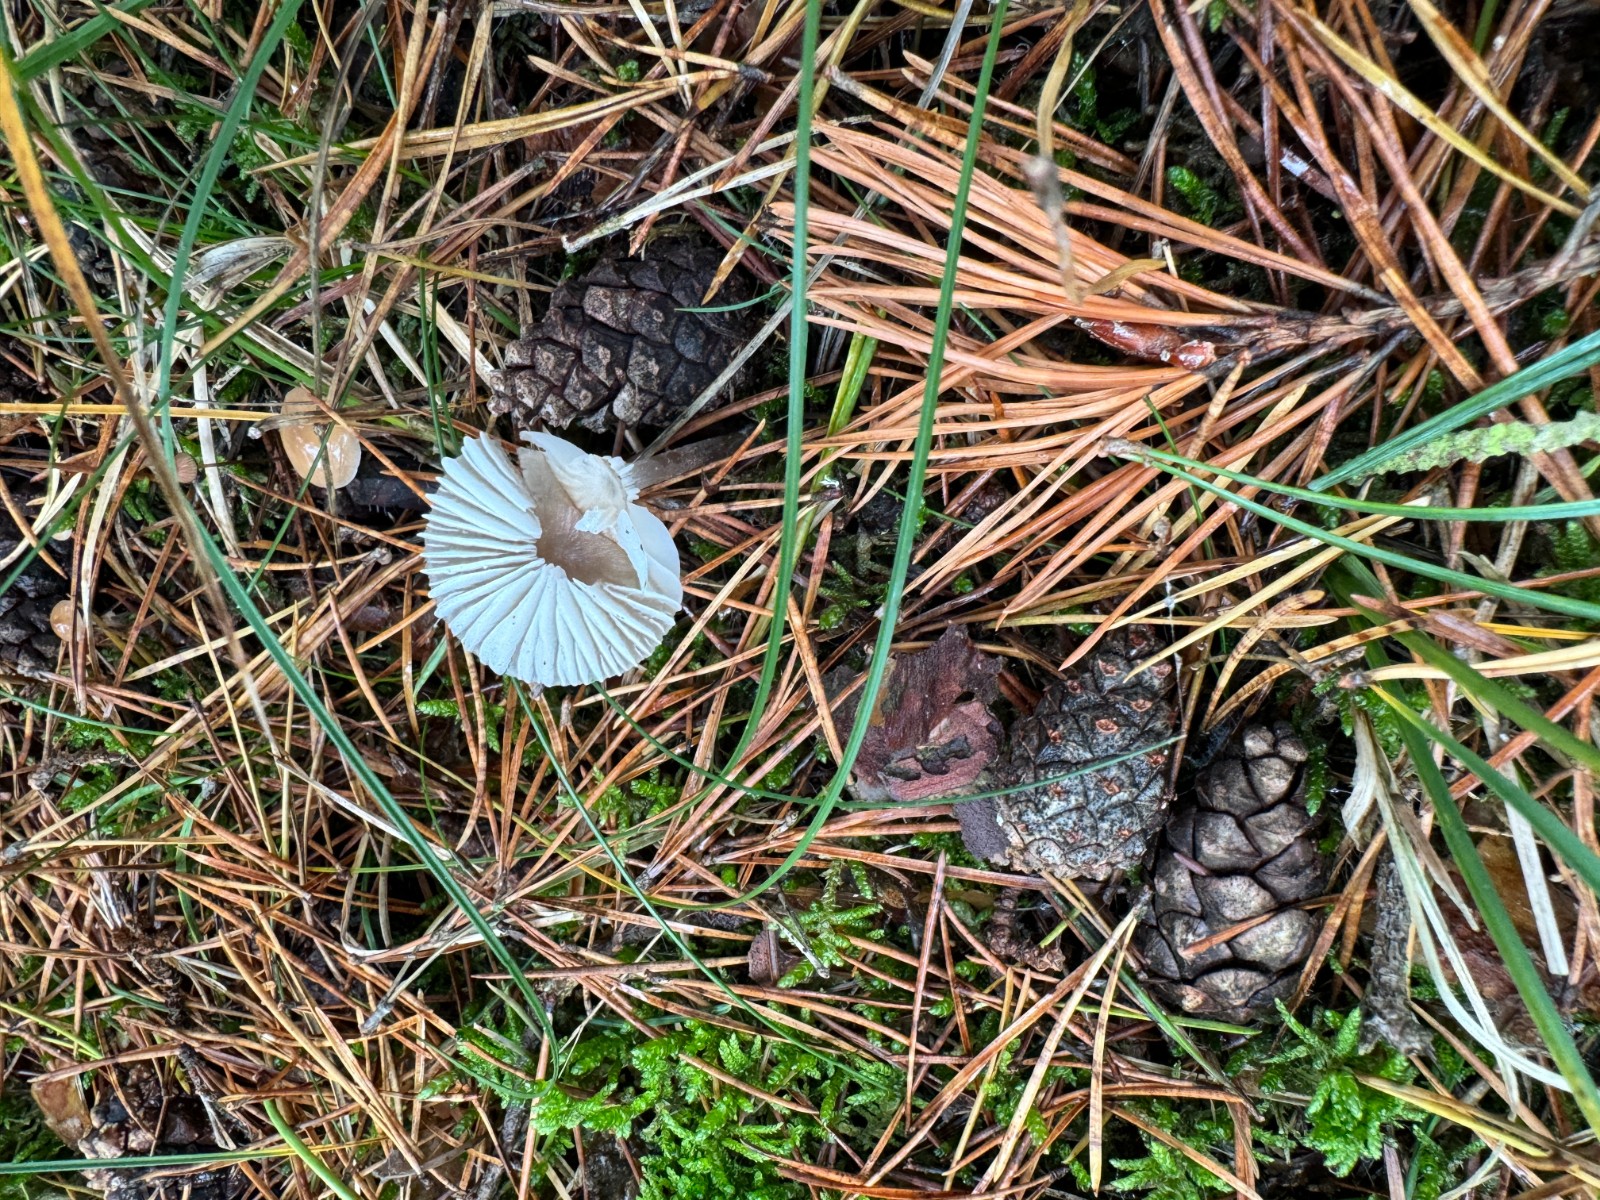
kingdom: Fungi
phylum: Basidiomycota
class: Agaricomycetes
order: Agaricales
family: Mycenaceae
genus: Mycena
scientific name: Mycena galopus
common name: hvidmælket huesvamp
